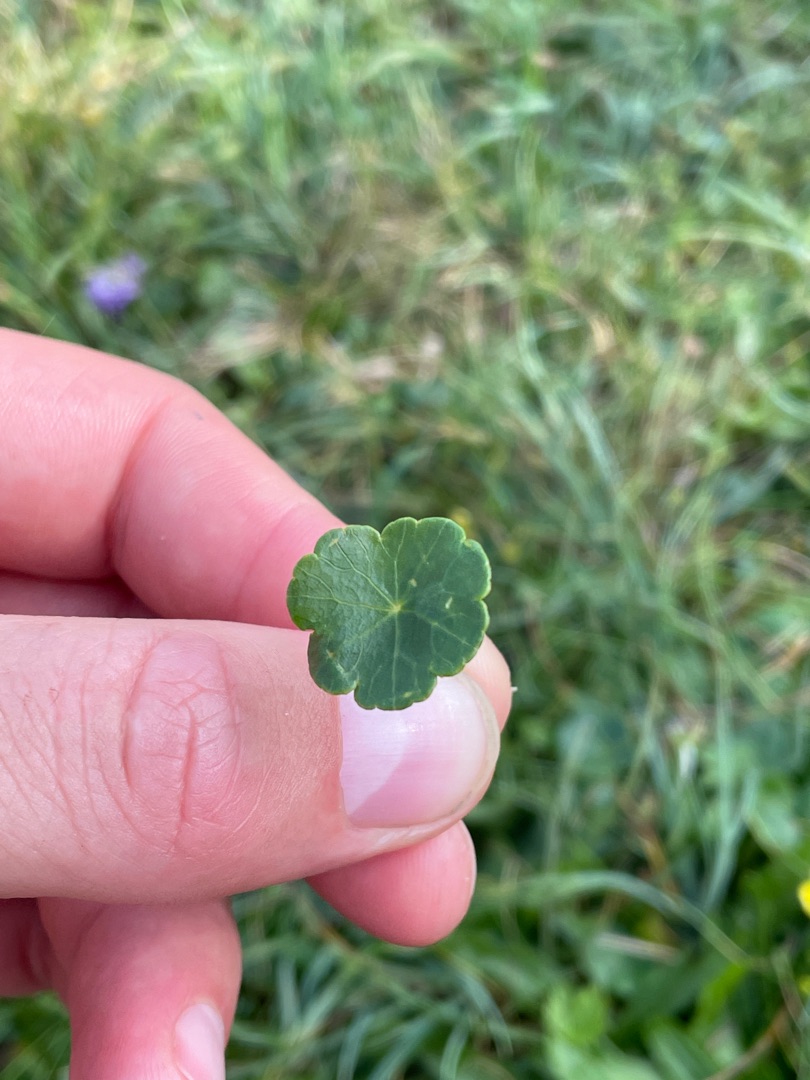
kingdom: Plantae
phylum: Tracheophyta
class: Magnoliopsida
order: Apiales
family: Araliaceae
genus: Hydrocotyle
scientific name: Hydrocotyle vulgaris
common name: Vandnavle
